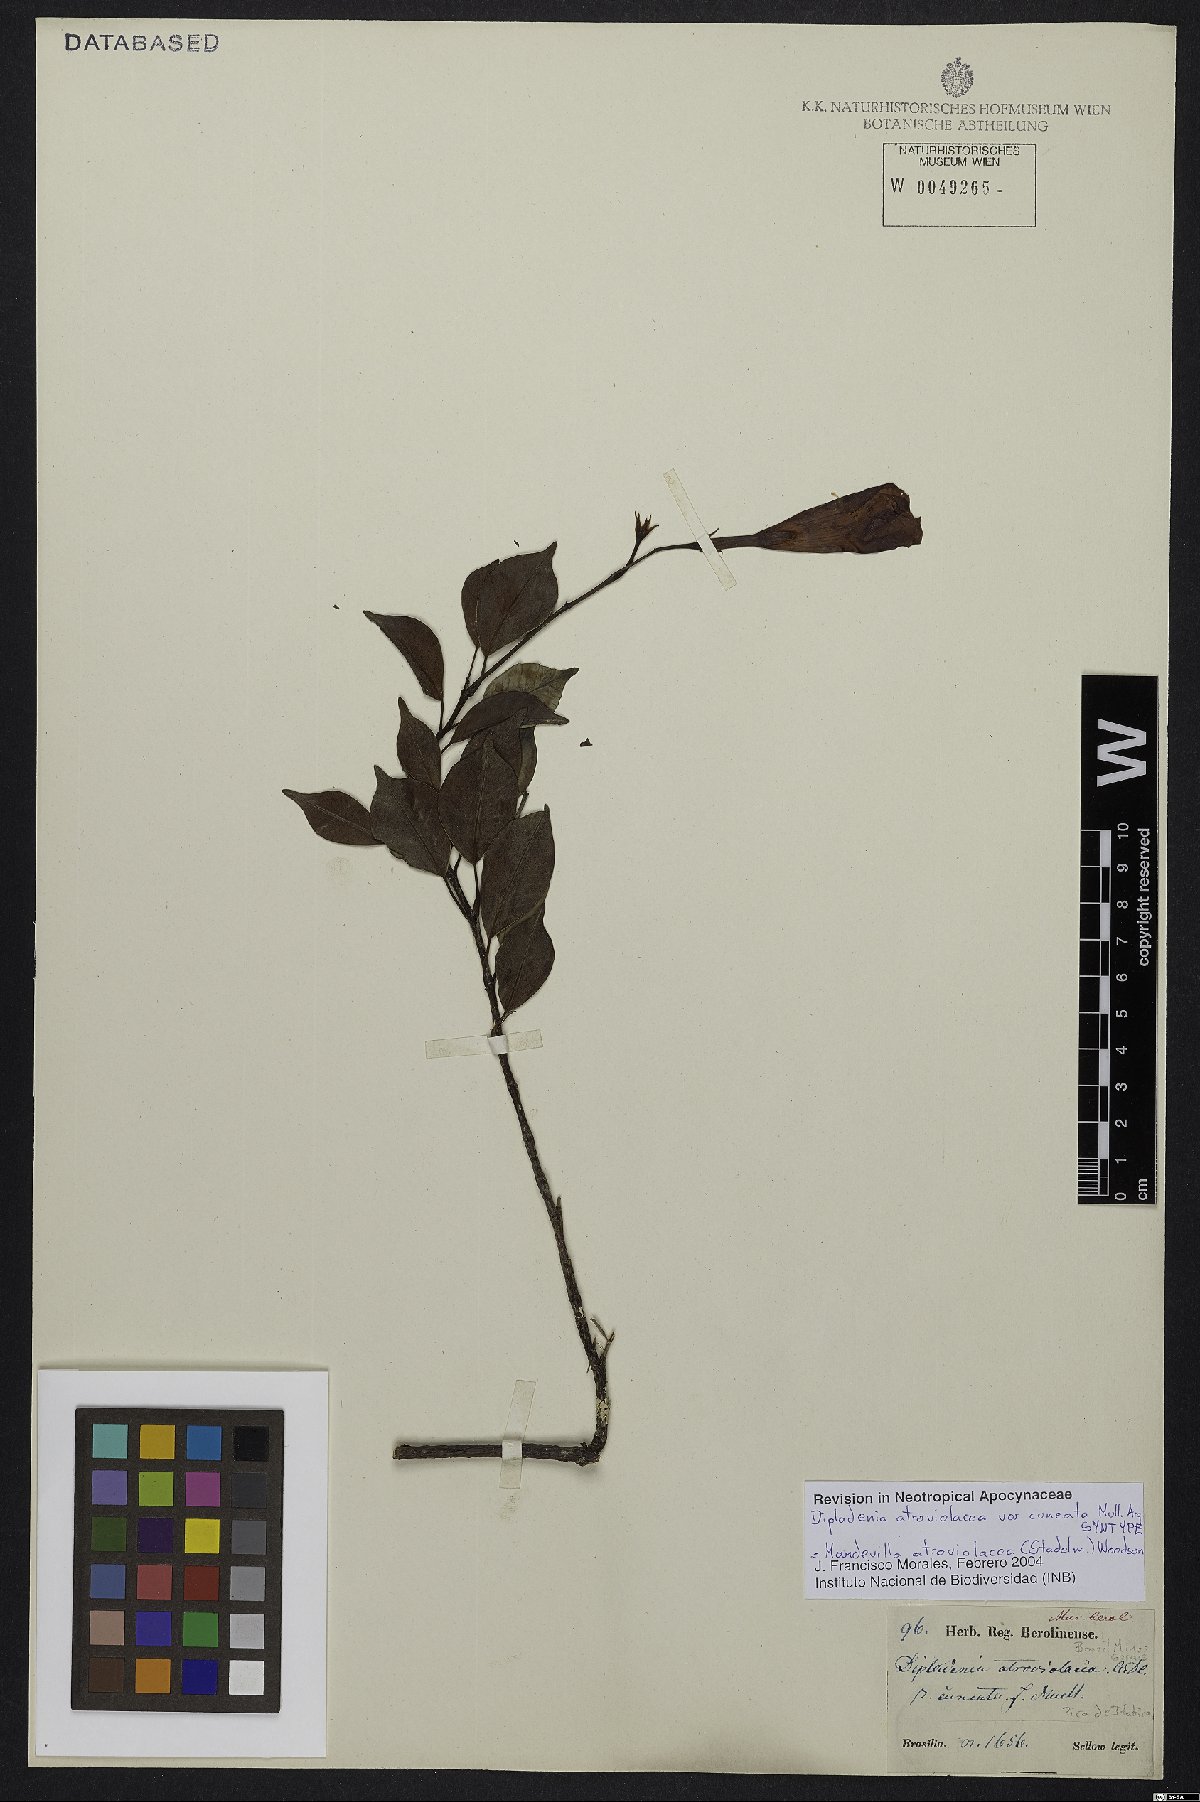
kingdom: Plantae
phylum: Tracheophyta
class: Magnoliopsida
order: Gentianales
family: Apocynaceae
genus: Mandevilla
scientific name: Mandevilla atroviolacea
